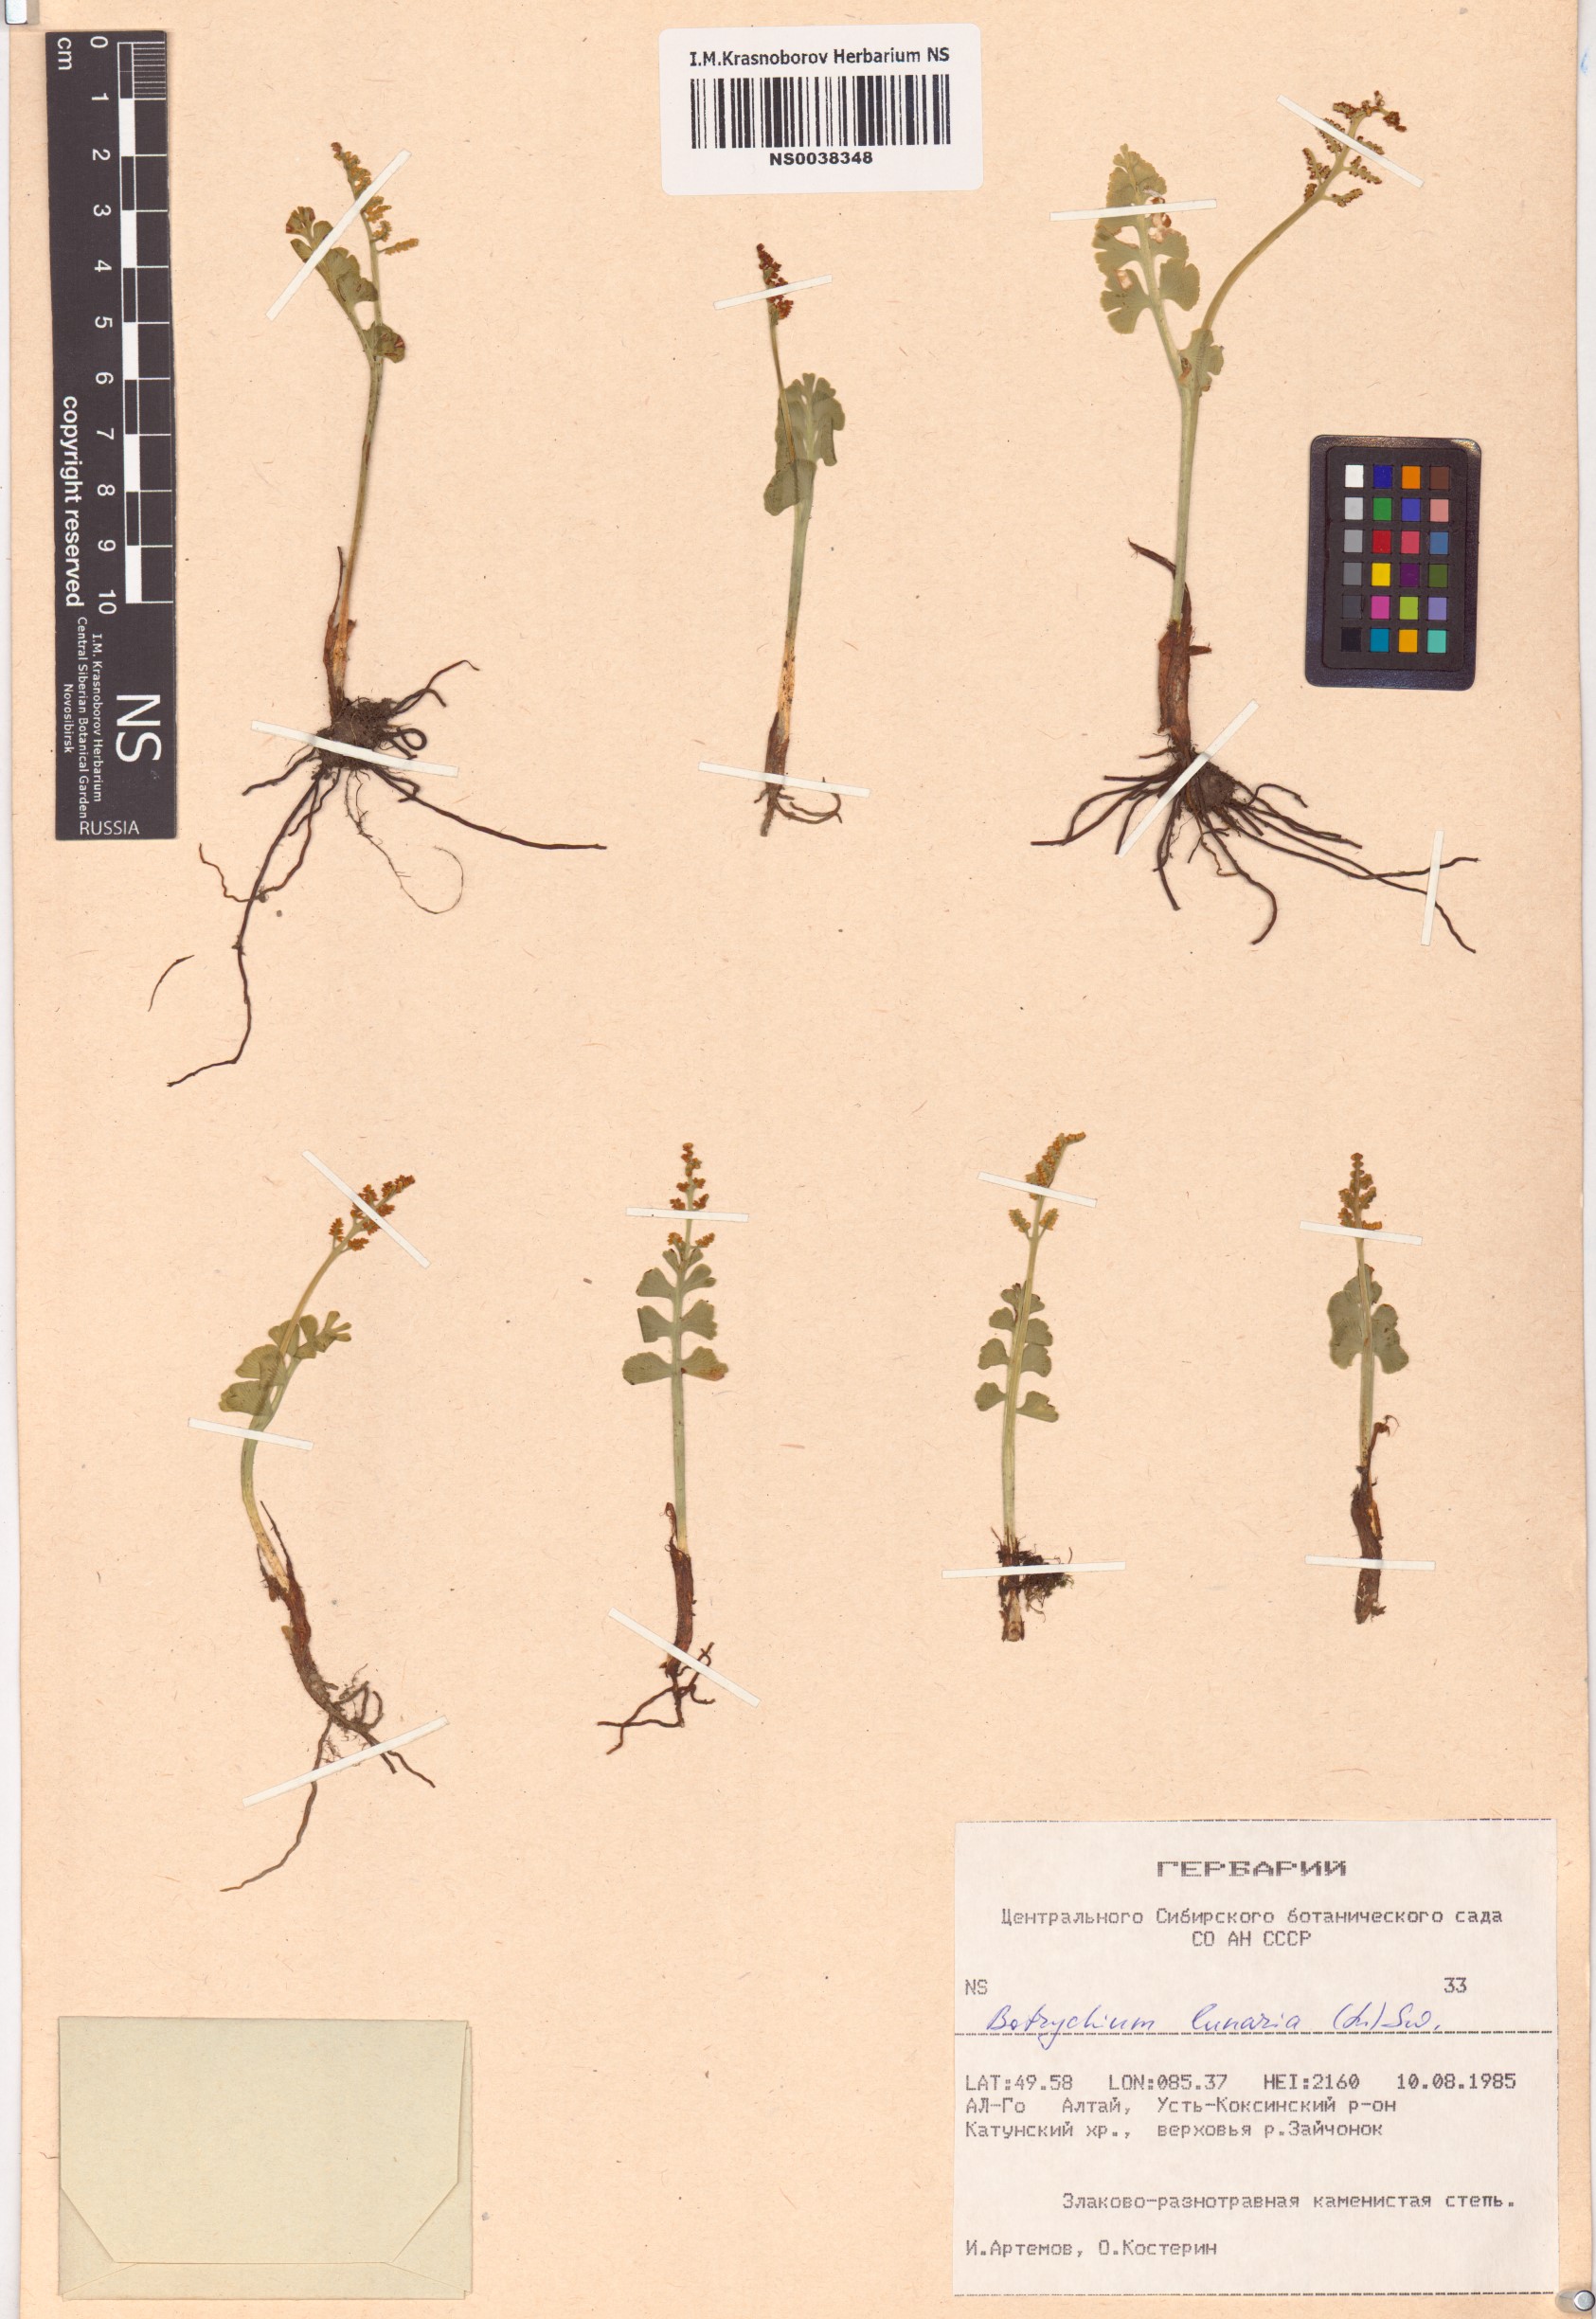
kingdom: Plantae
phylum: Tracheophyta
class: Polypodiopsida
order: Ophioglossales
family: Ophioglossaceae
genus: Botrychium
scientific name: Botrychium lunaria
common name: Moonwort
